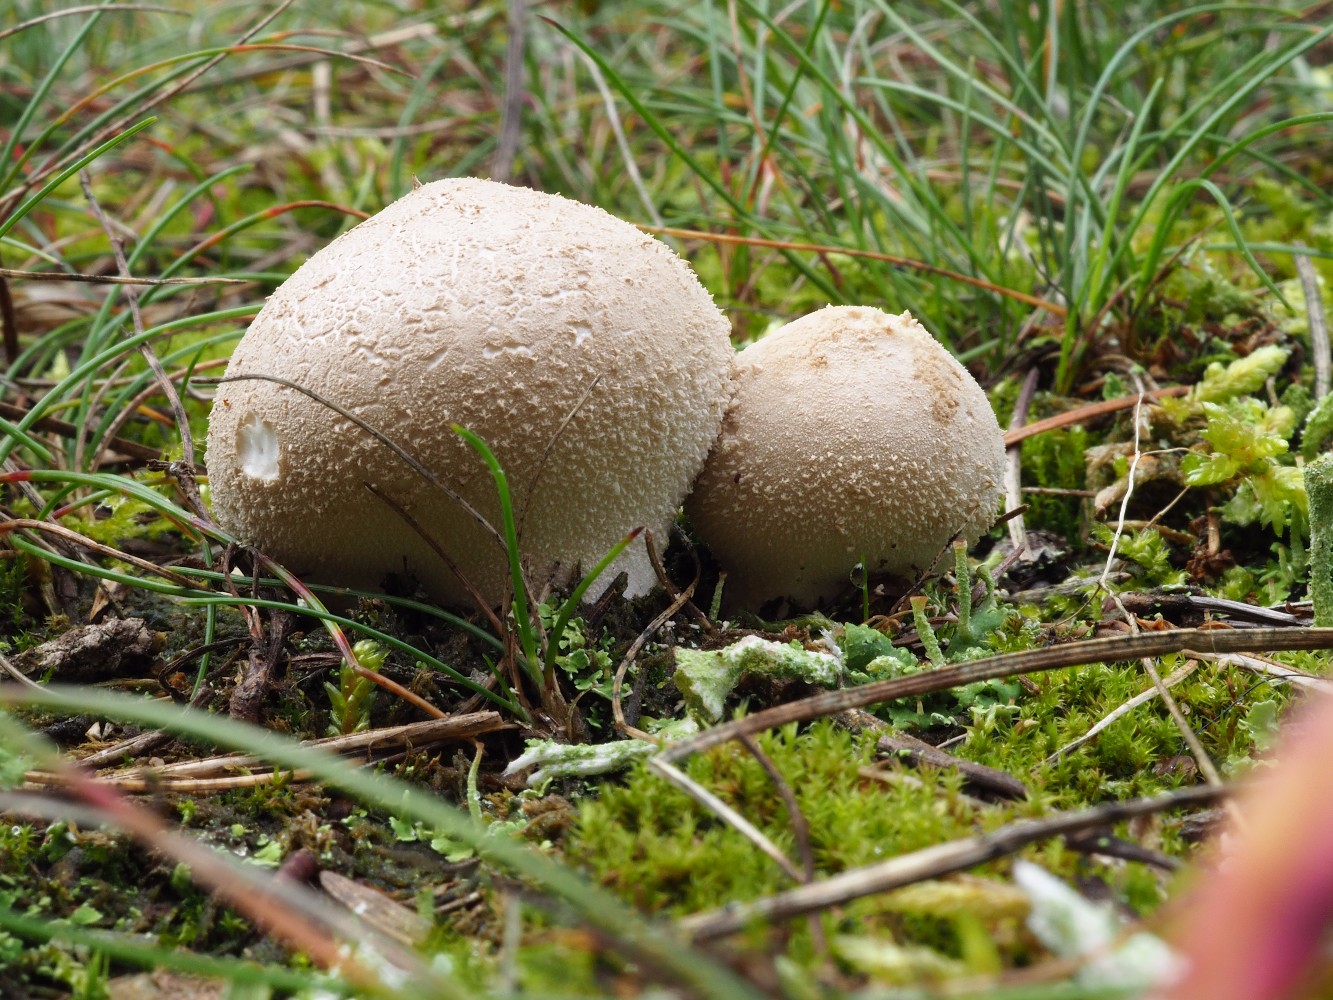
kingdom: Fungi
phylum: Basidiomycota
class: Agaricomycetes
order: Agaricales
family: Lycoperdaceae
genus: Lycoperdon
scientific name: Lycoperdon lividum
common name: mark-støvbold
